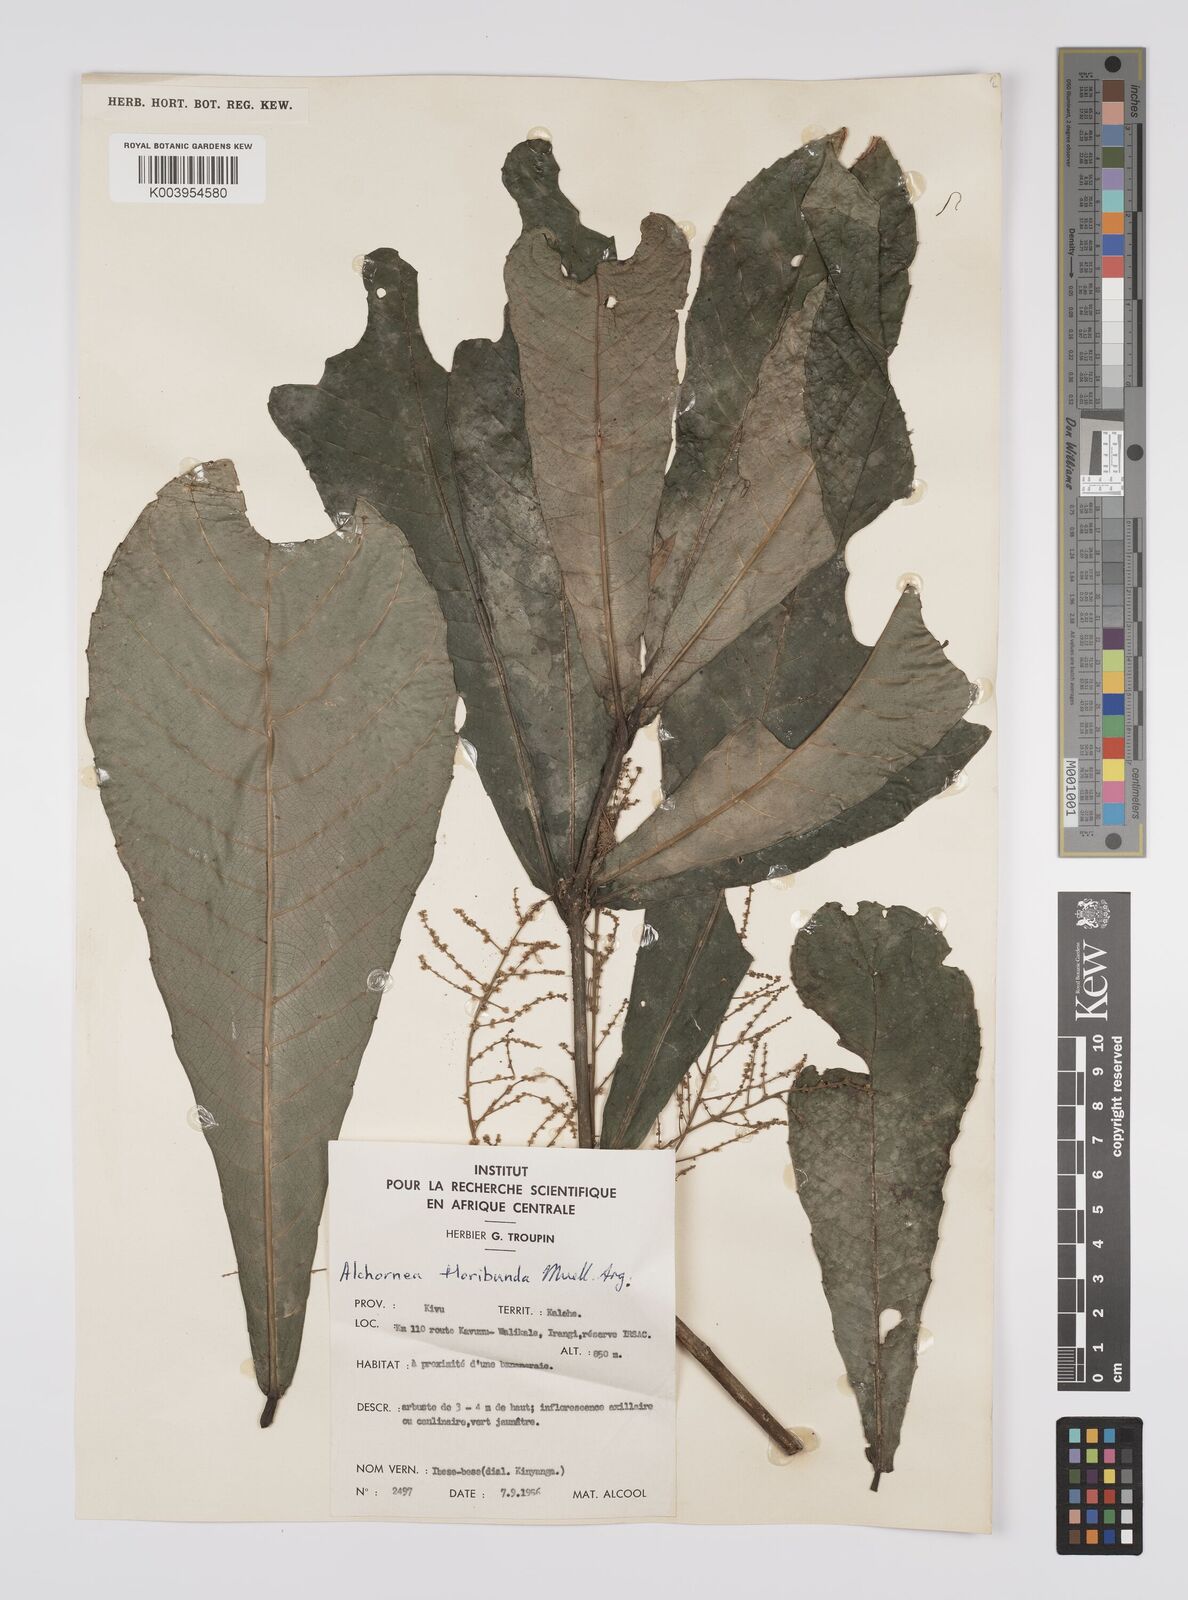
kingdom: Plantae
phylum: Tracheophyta
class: Magnoliopsida
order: Malpighiales
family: Euphorbiaceae
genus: Alchornea
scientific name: Alchornea floribunda
